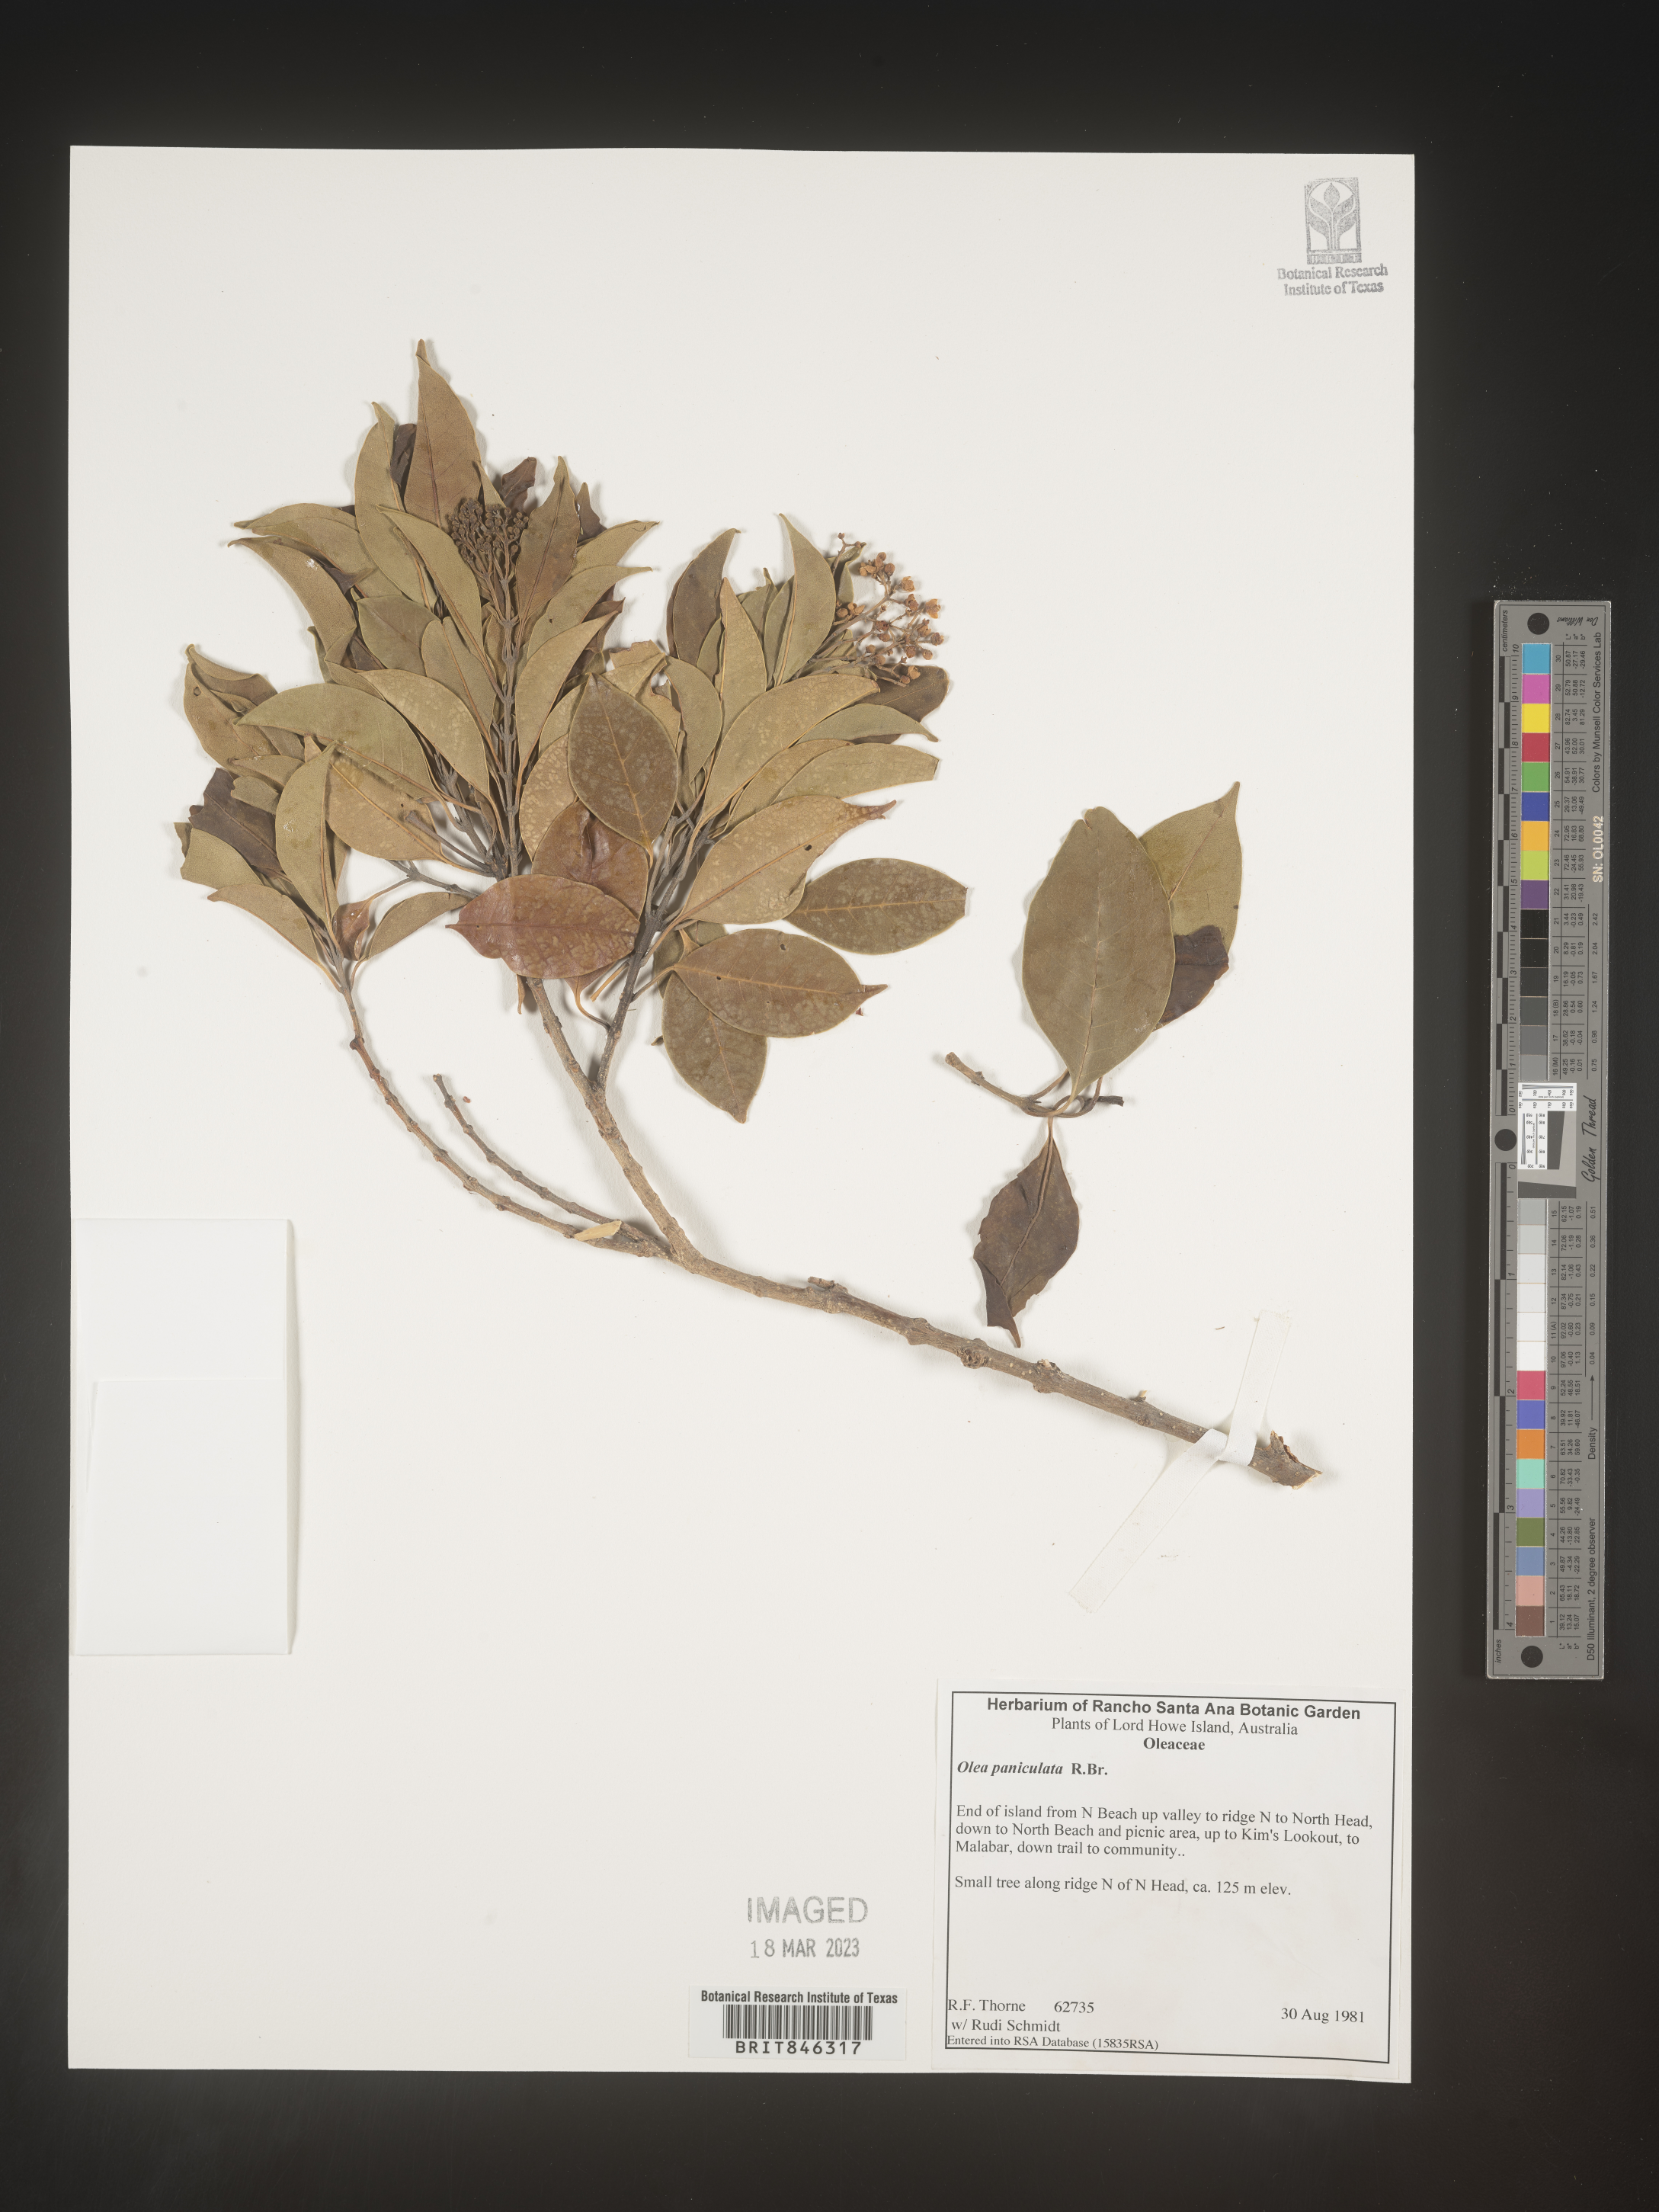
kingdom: Plantae
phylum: Tracheophyta
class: Magnoliopsida
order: Lamiales
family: Oleaceae
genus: Olea
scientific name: Olea
